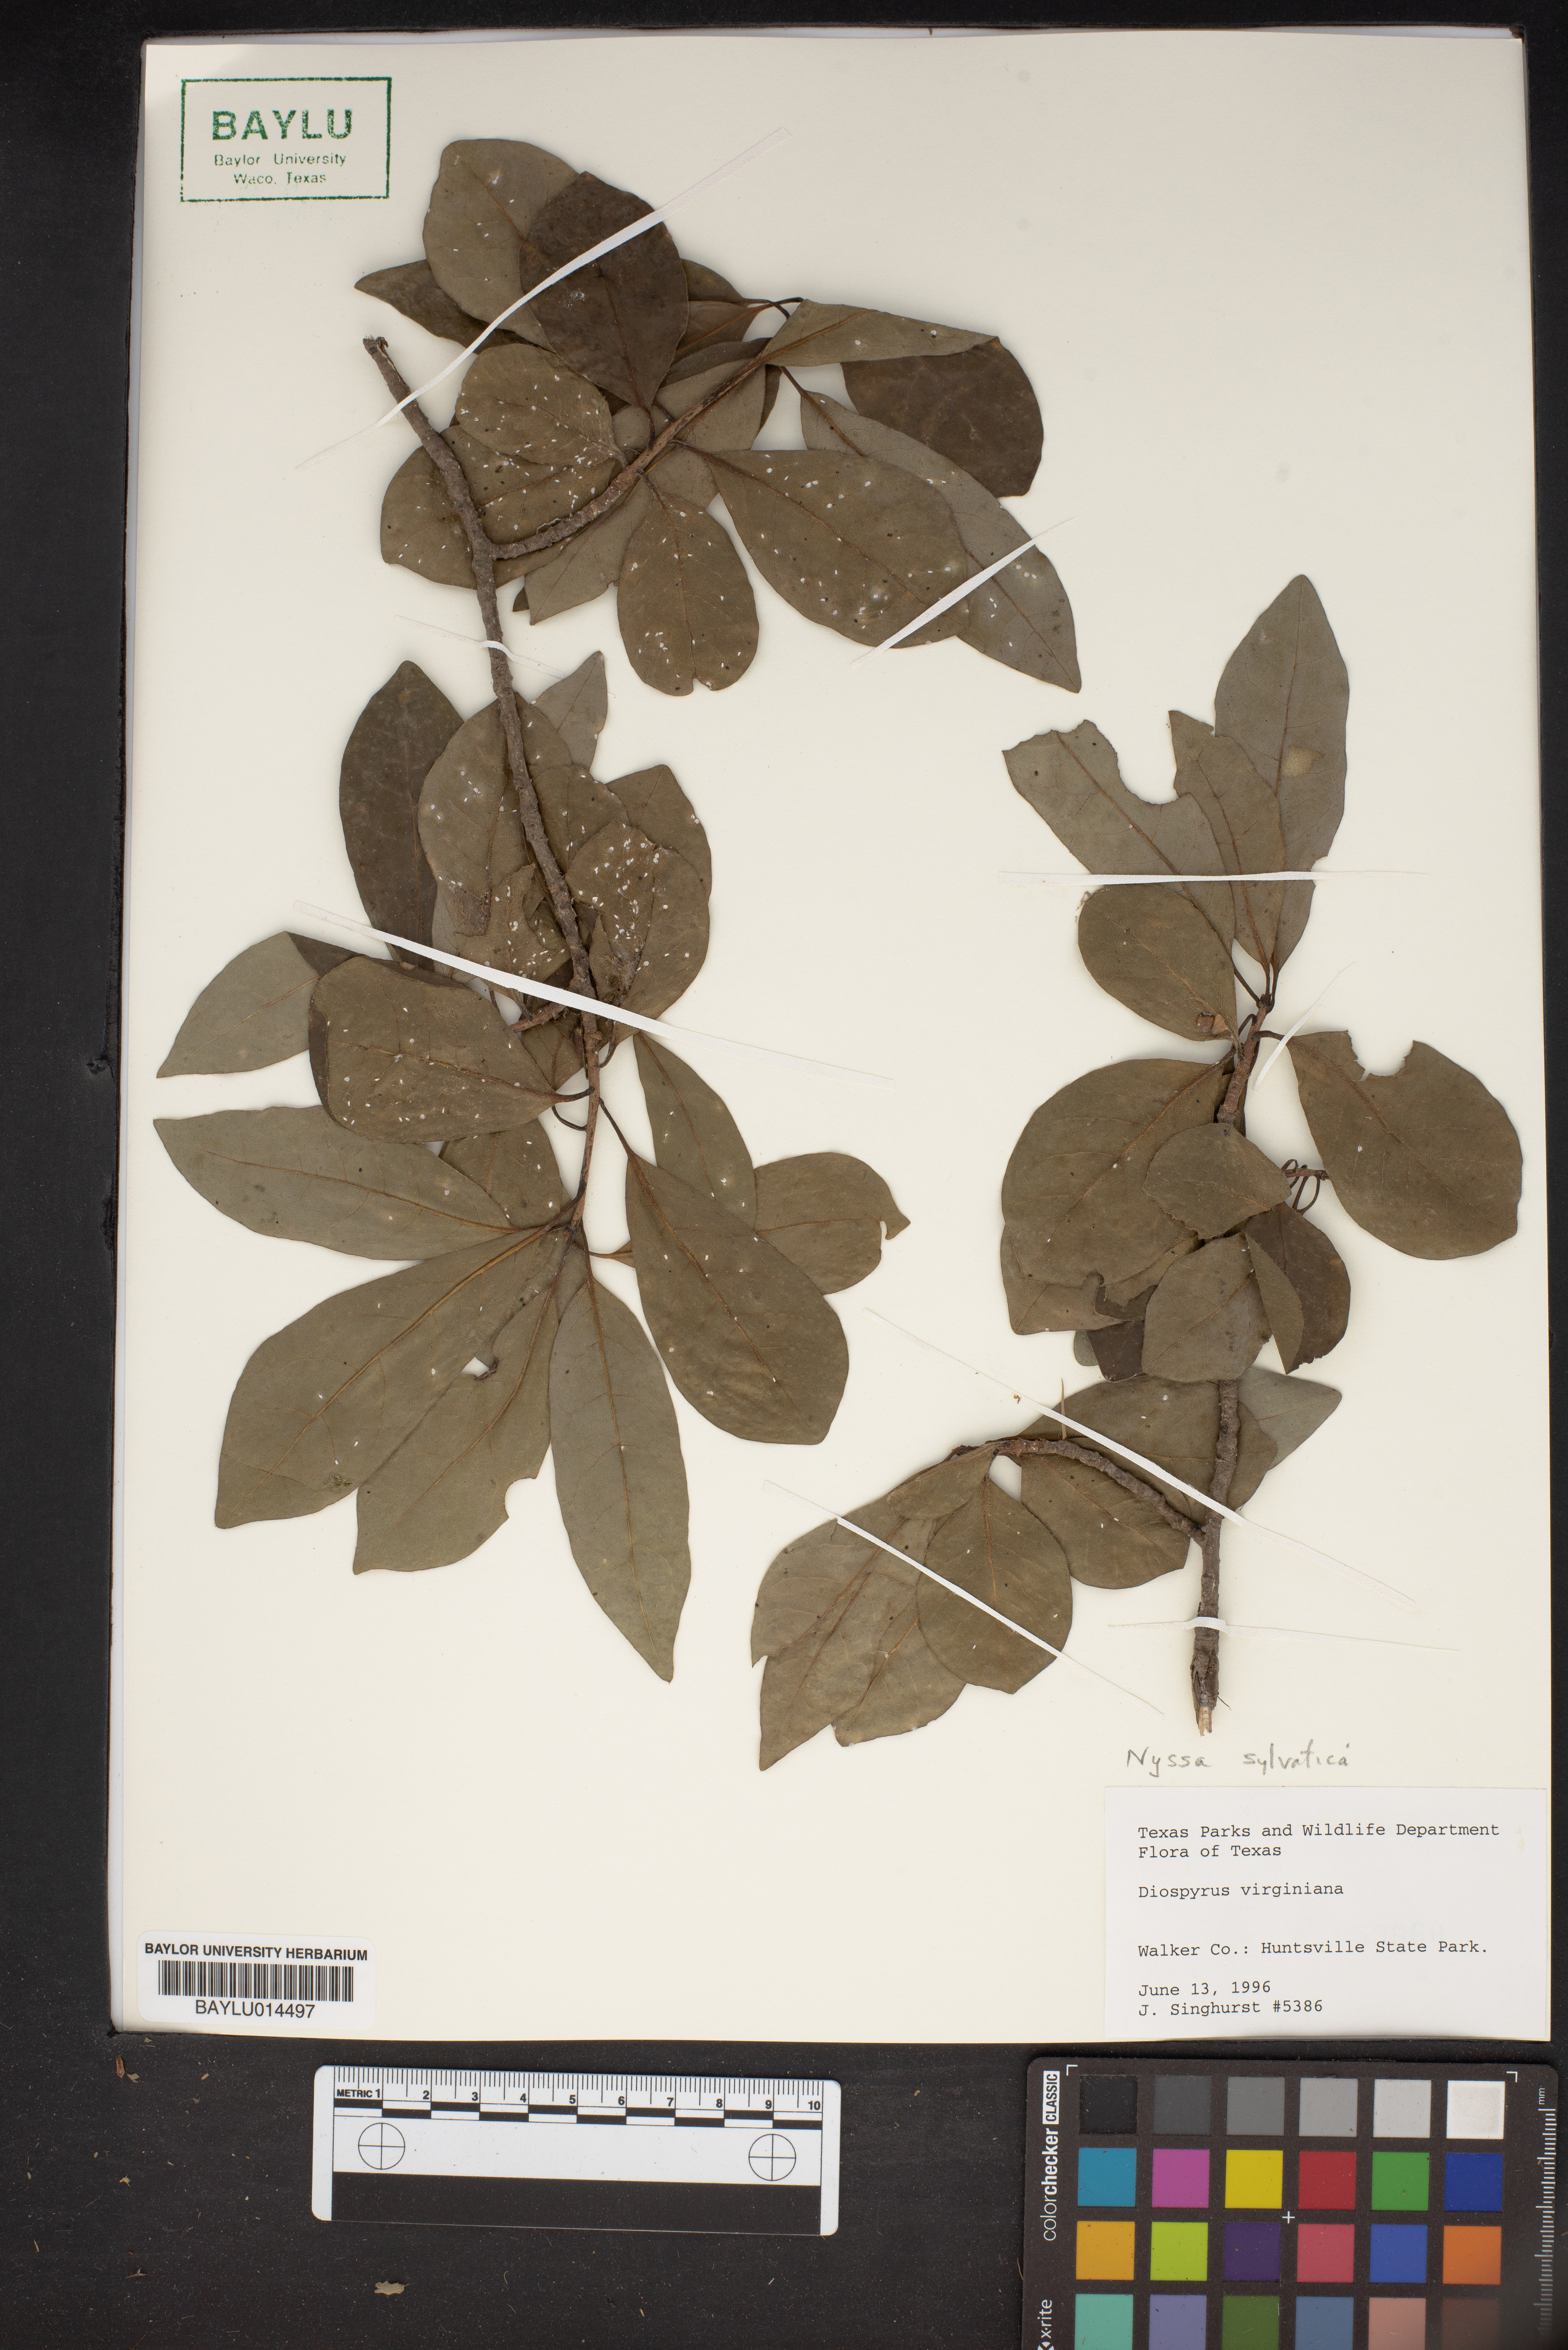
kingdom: Plantae
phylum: Tracheophyta
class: Magnoliopsida
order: Ericales
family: Ebenaceae
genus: Diospyros
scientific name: Diospyros virginiana
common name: Persimmon
